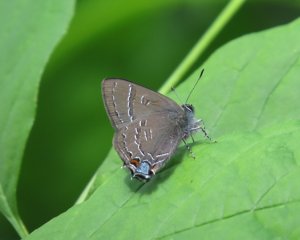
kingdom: Animalia
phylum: Arthropoda
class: Insecta
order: Lepidoptera
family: Lycaenidae
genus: Satyrium
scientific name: Satyrium calanus
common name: Banded Hairstreak
